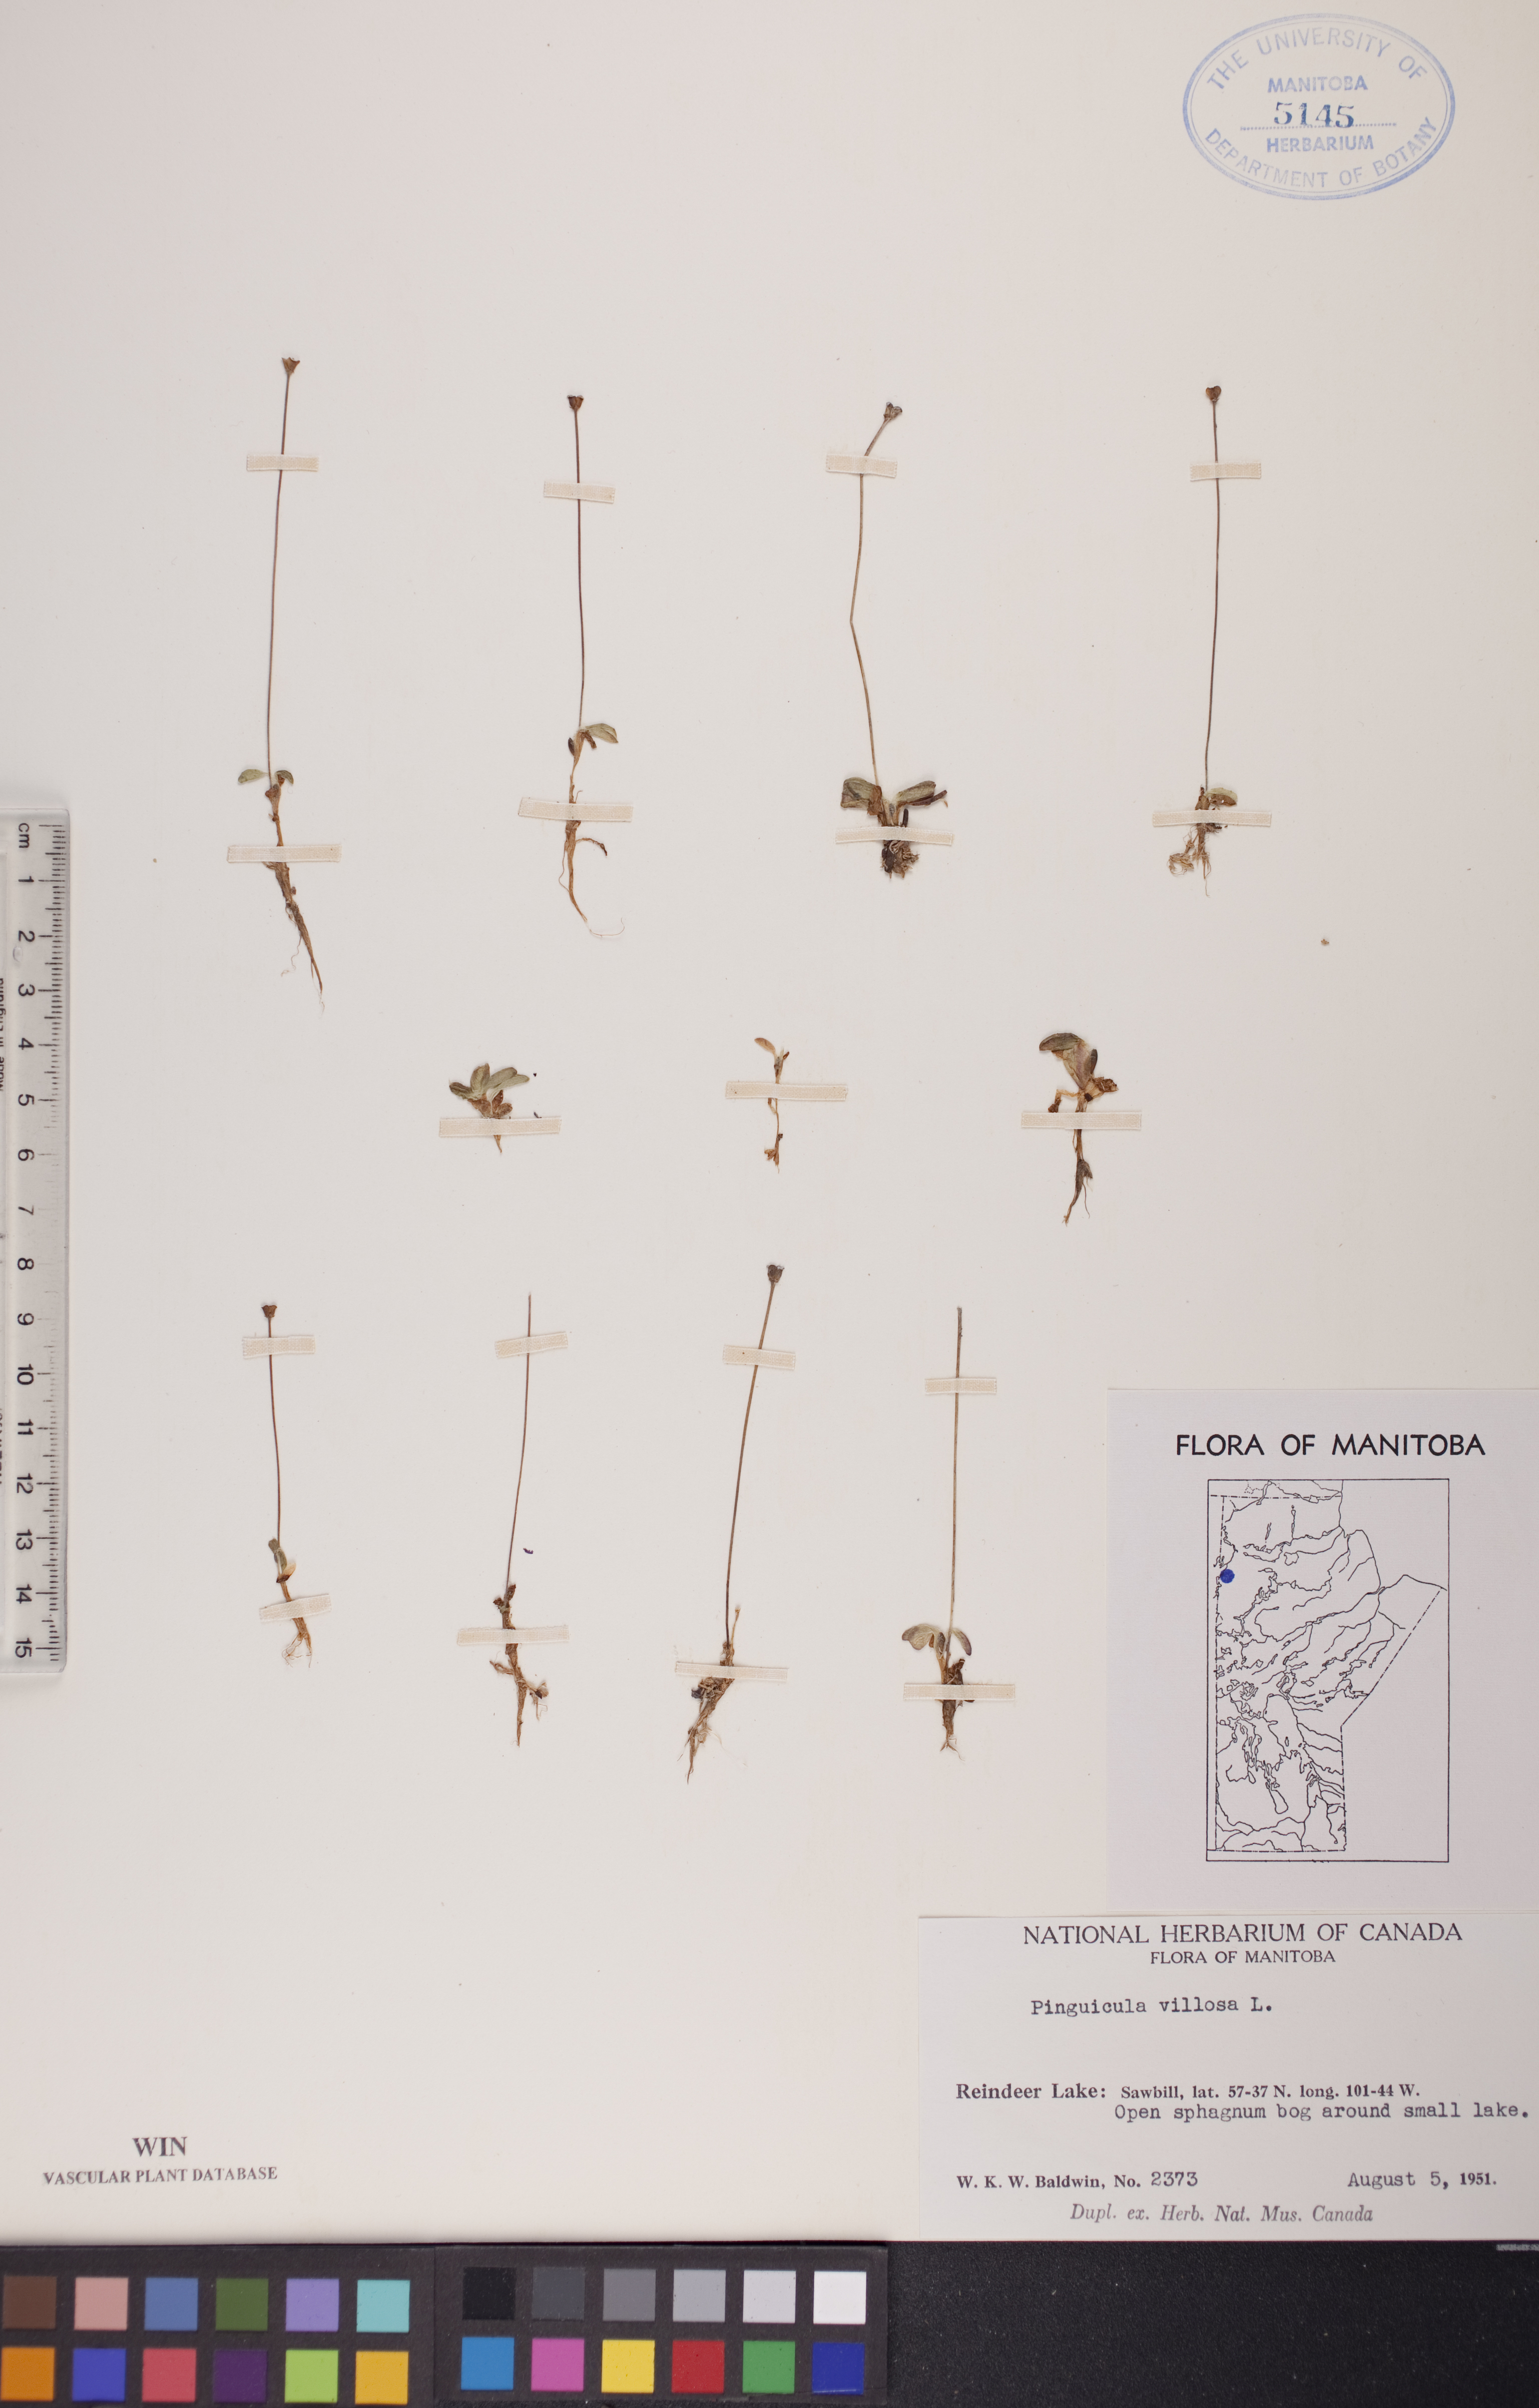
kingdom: Plantae
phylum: Tracheophyta
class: Magnoliopsida
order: Lamiales
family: Lentibulariaceae
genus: Pinguicula
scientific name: Pinguicula villosa
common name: Hairy butterwort
